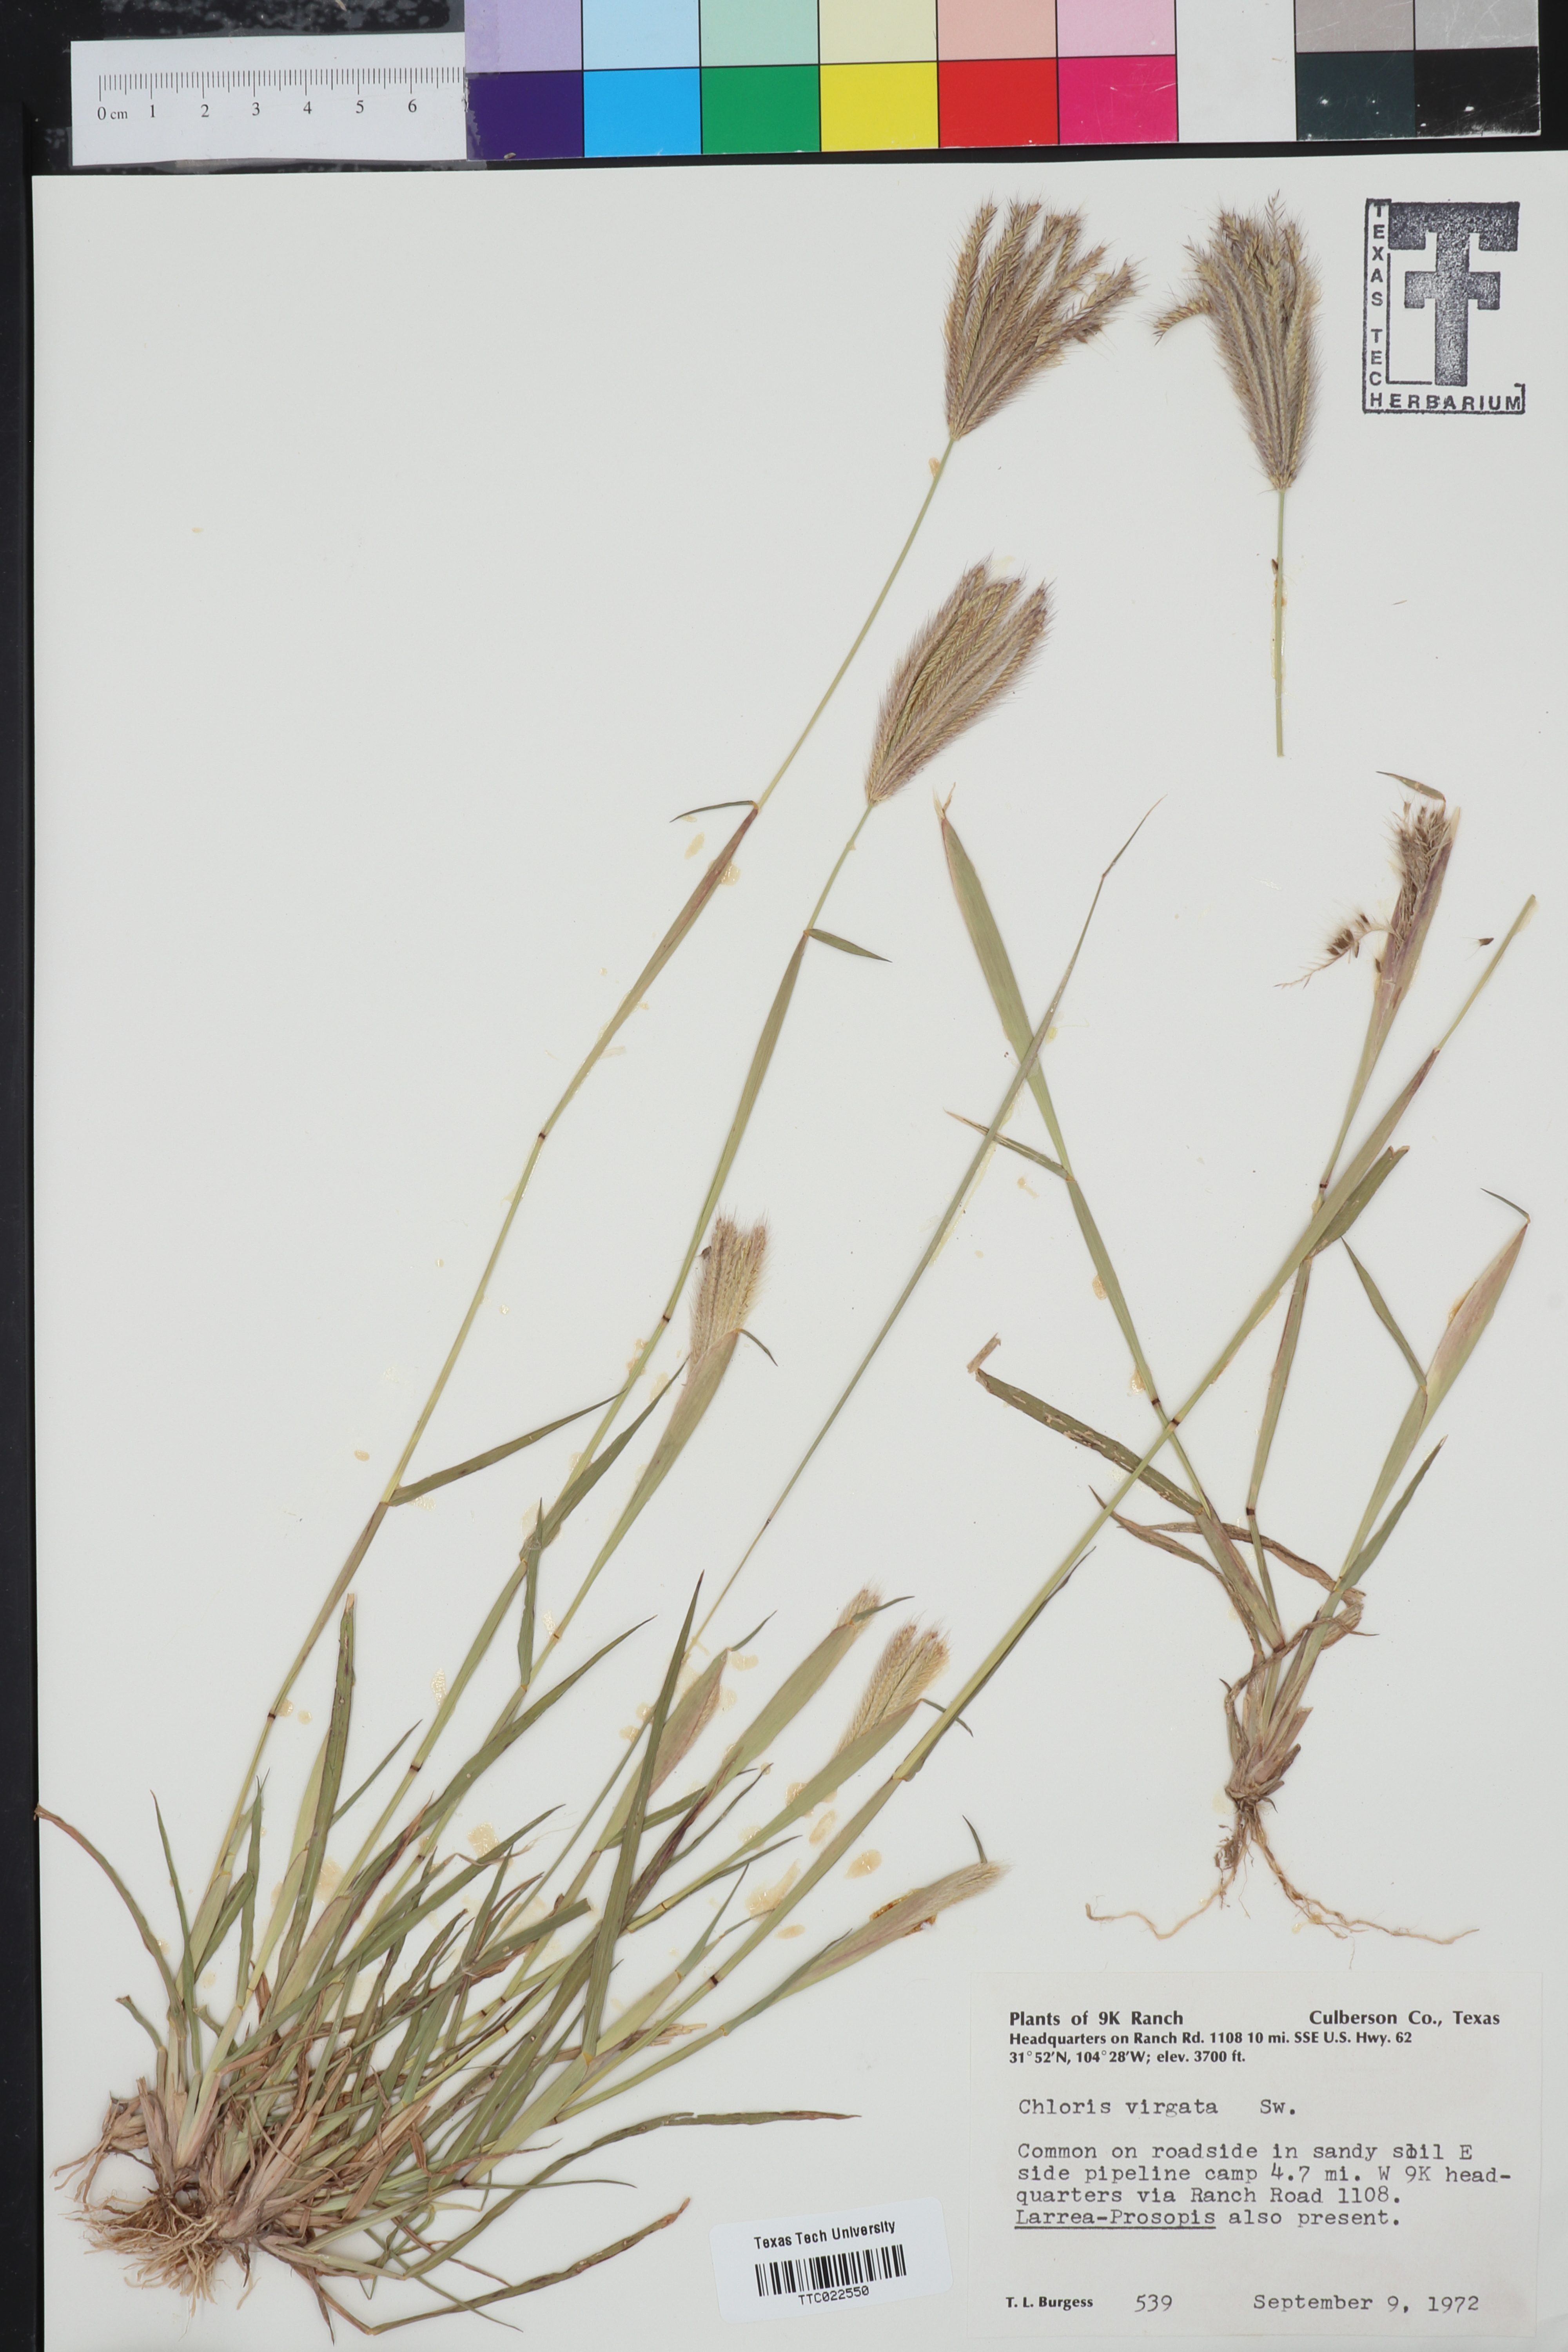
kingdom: Plantae
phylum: Tracheophyta
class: Liliopsida
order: Poales
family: Poaceae
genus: Chloris
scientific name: Chloris virgata
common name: Feathery rhodes-grass
